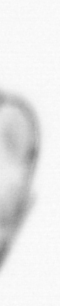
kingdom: Chromista
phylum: Ochrophyta
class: Bacillariophyceae
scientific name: Bacillariophyceae
